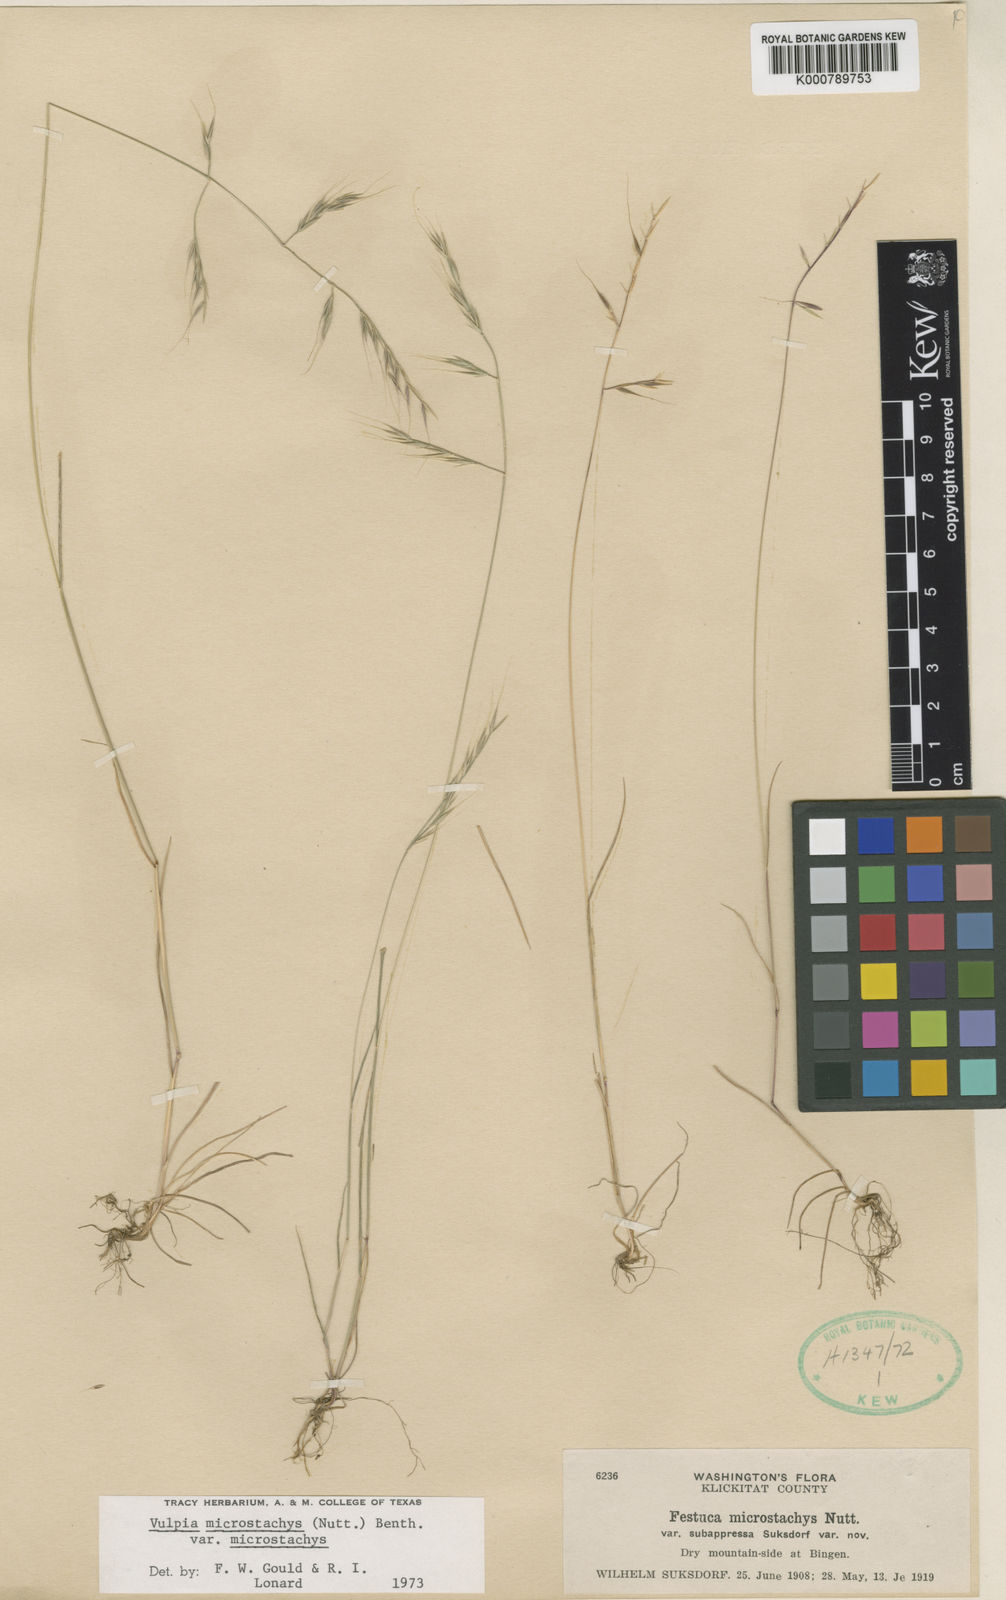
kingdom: Plantae
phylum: Tracheophyta
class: Liliopsida
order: Poales
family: Poaceae
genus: Festuca
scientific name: Festuca microstachys
